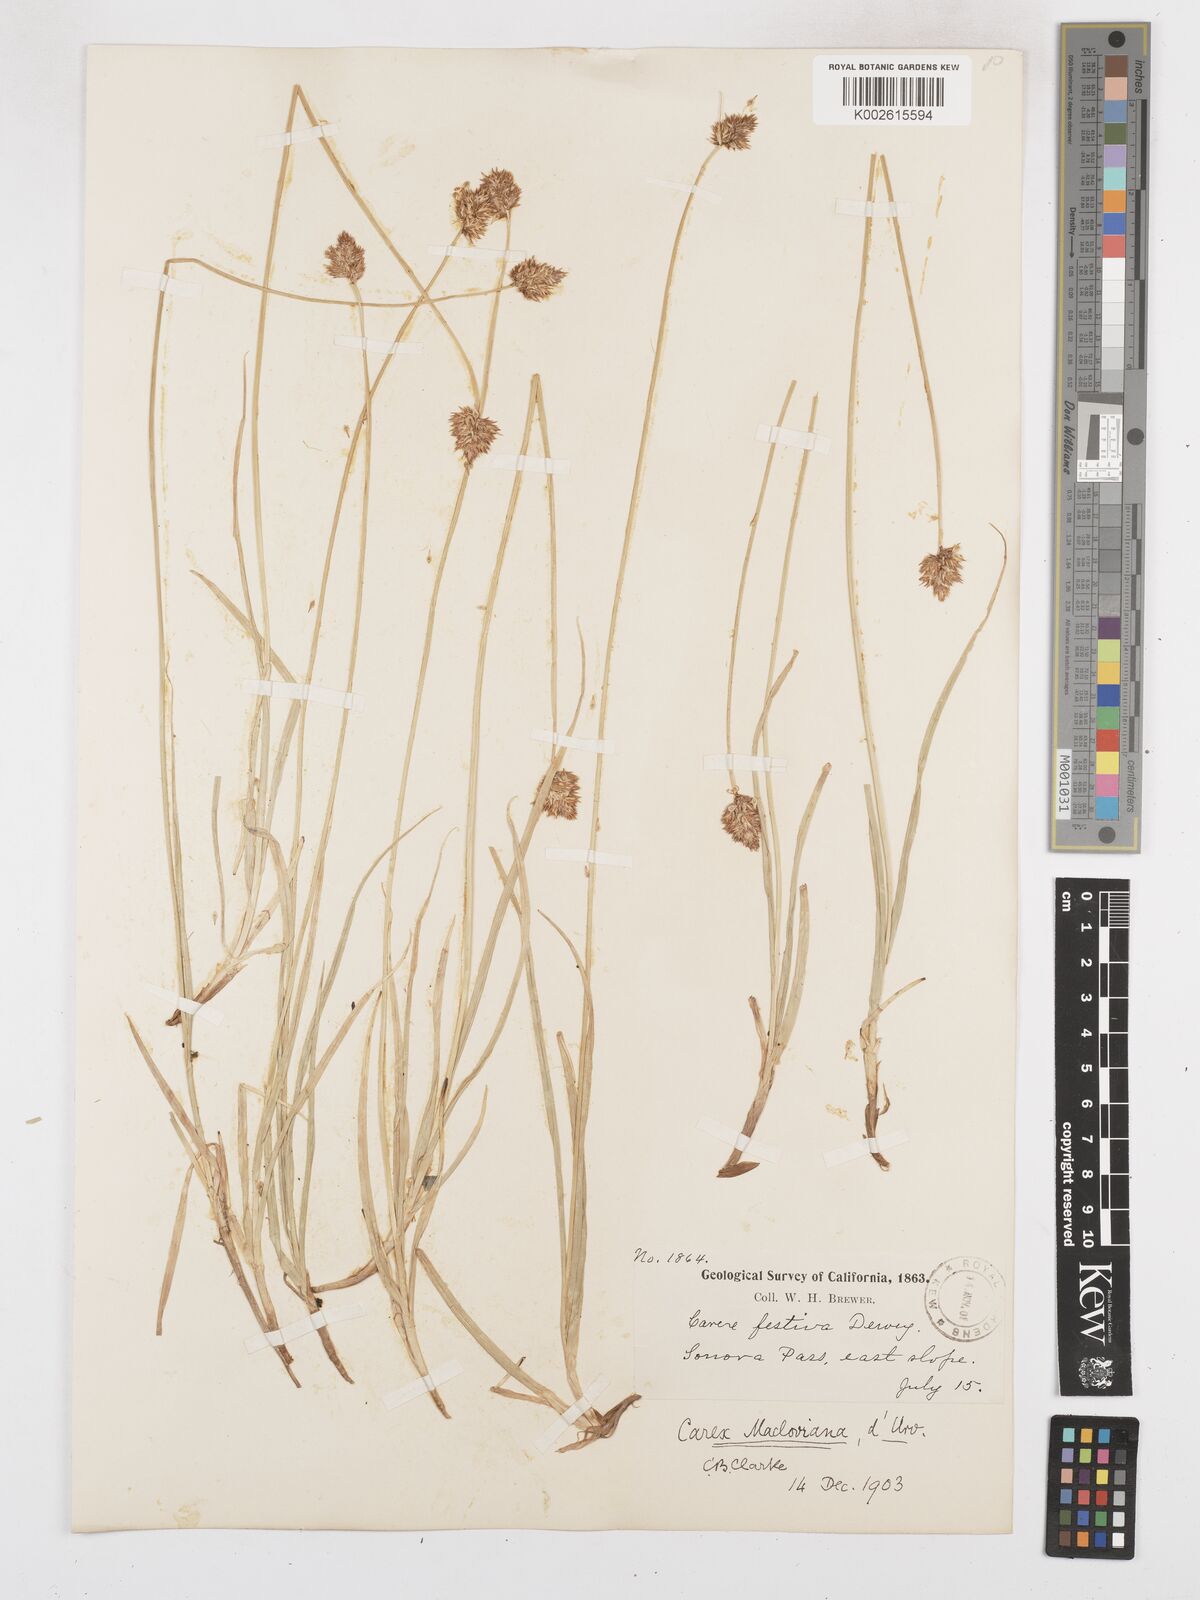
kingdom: Plantae
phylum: Tracheophyta
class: Liliopsida
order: Poales
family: Cyperaceae
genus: Carex
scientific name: Carex macloviana
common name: Falkland island sedge
